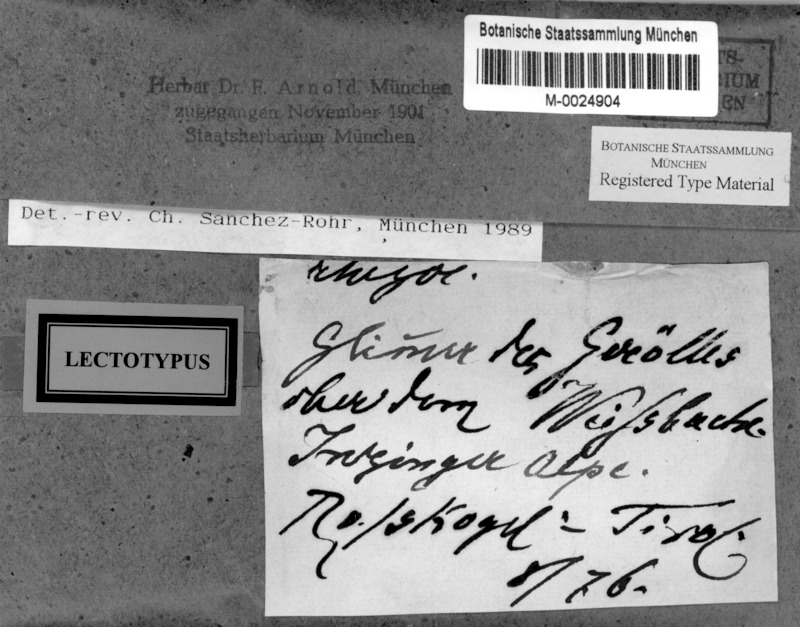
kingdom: Fungi
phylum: Ascomycota
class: Lecanoromycetes
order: Rhizocarpales
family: Rhizocarpaceae
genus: Rhizocarpon
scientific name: Rhizocarpon intersitum
